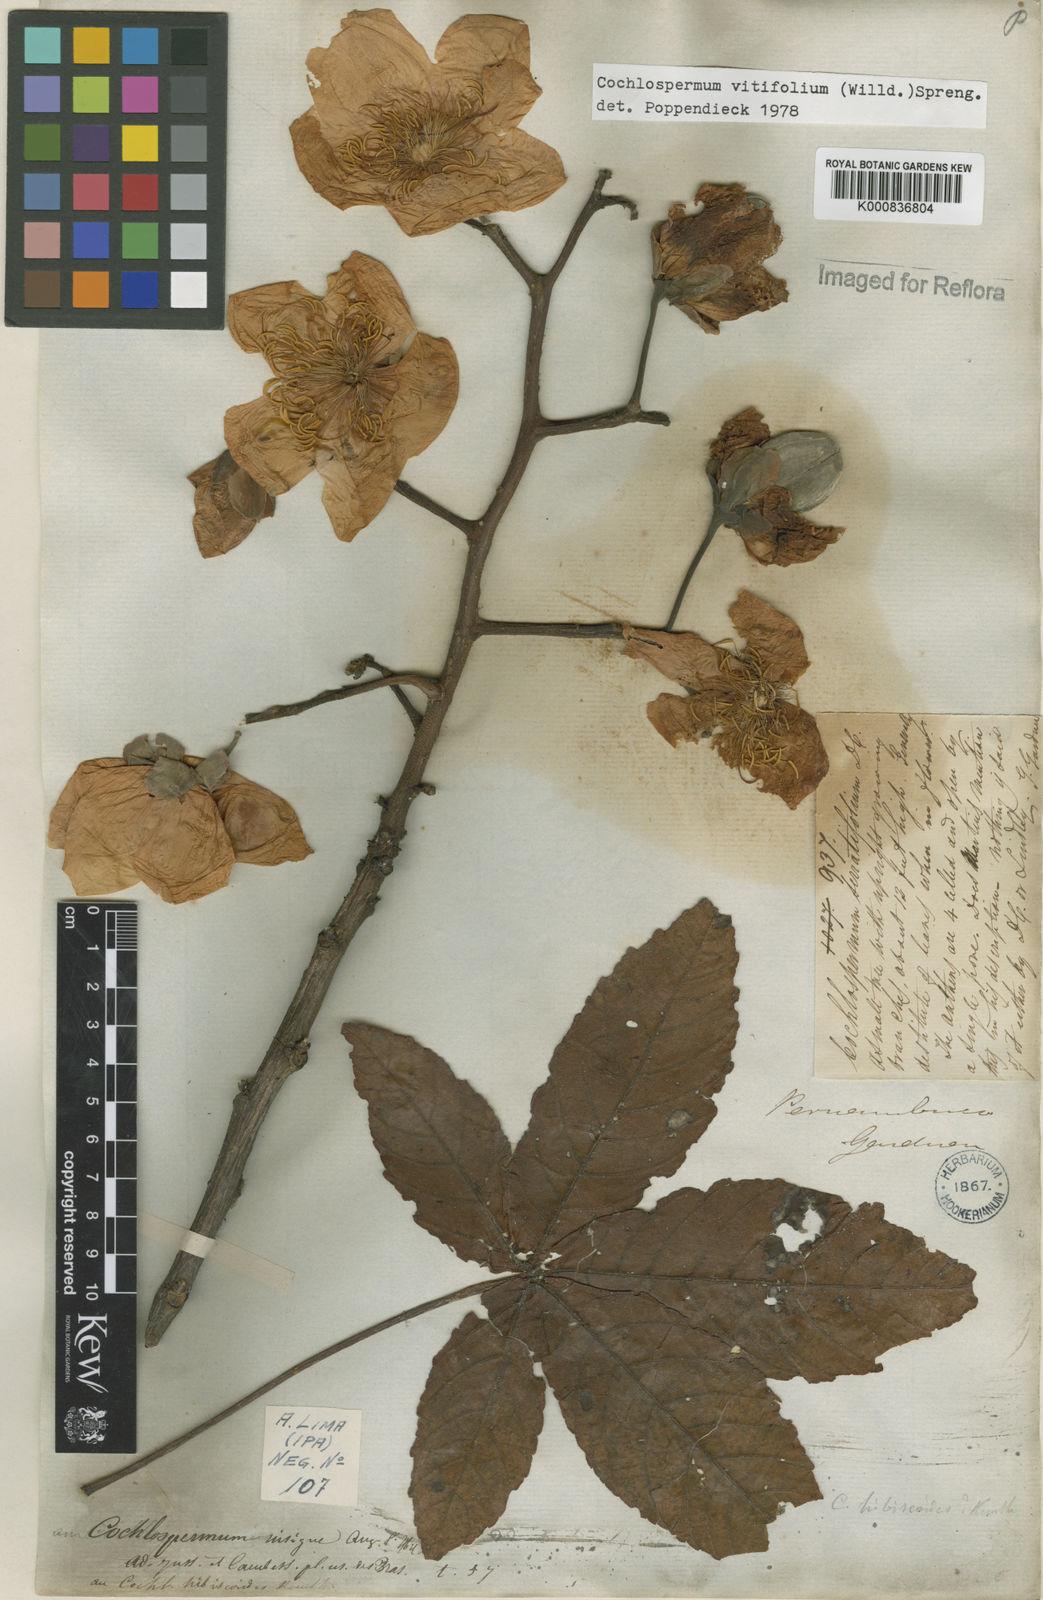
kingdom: Plantae
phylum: Tracheophyta
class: Magnoliopsida
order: Malvales
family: Cochlospermaceae
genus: Cochlospermum
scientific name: Cochlospermum regium
